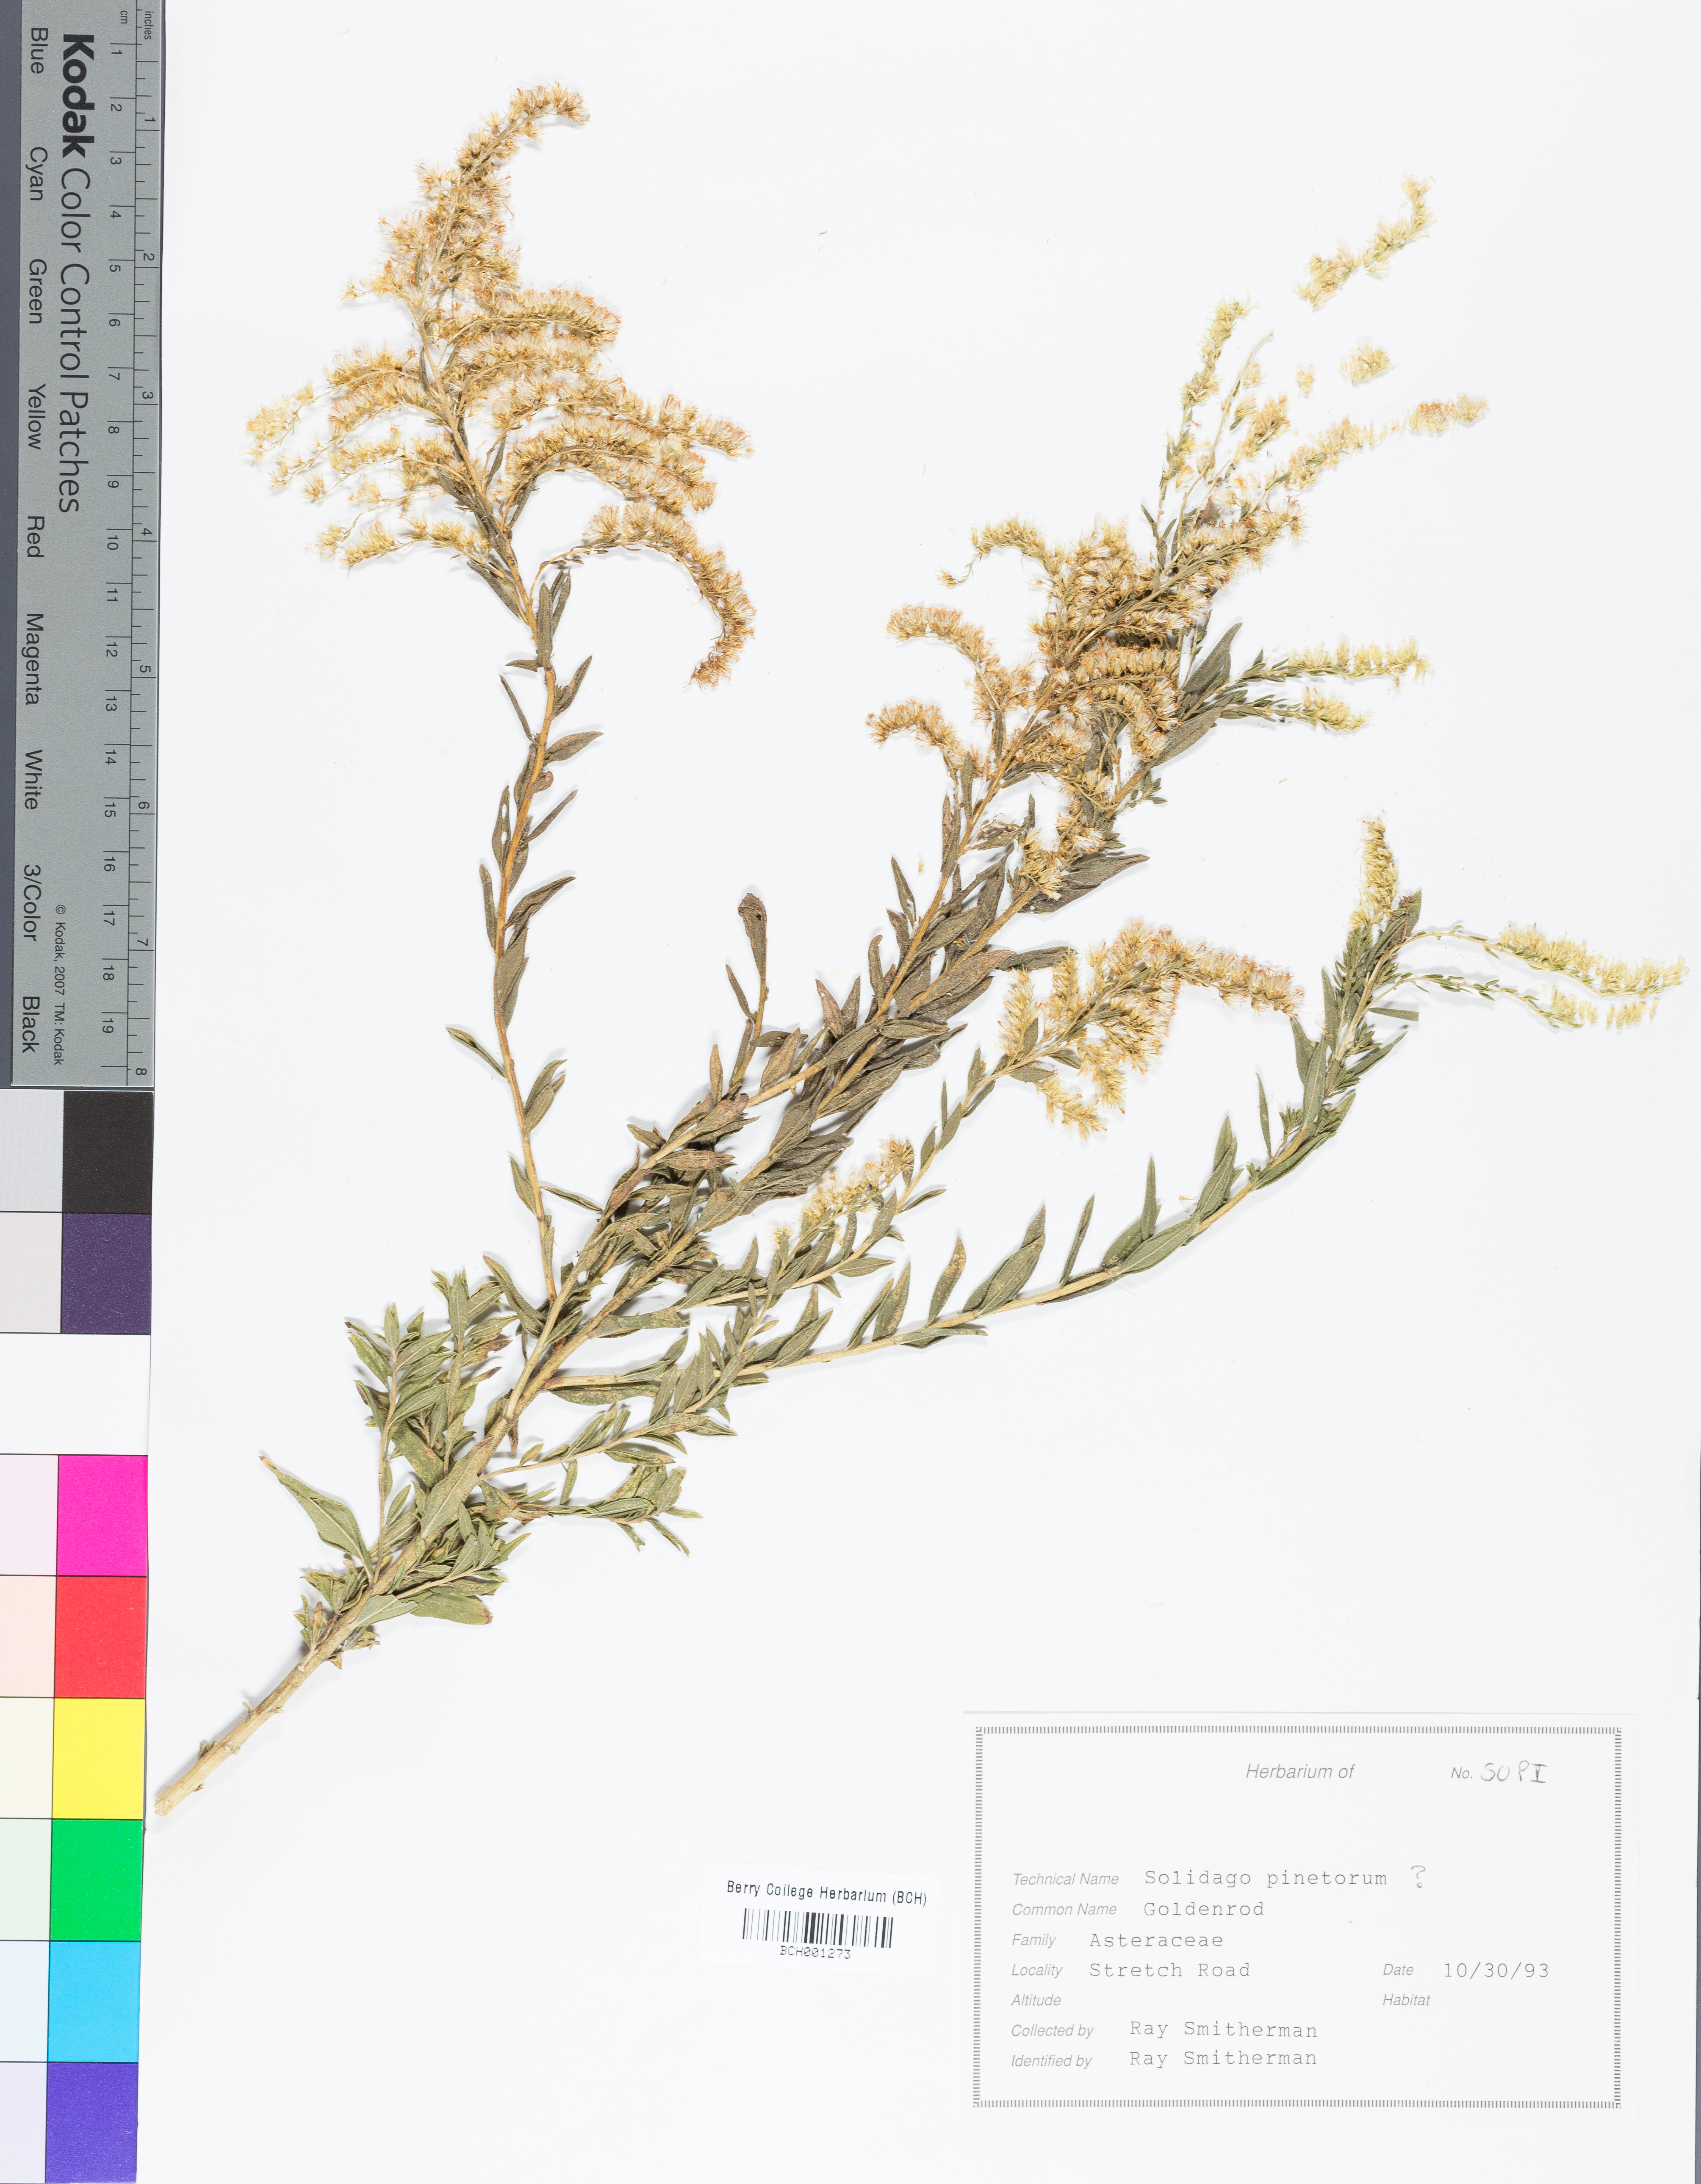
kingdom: Plantae
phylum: Tracheophyta
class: Magnoliopsida
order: Asterales
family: Asteraceae
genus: Solidago
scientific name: Solidago pinetorum
